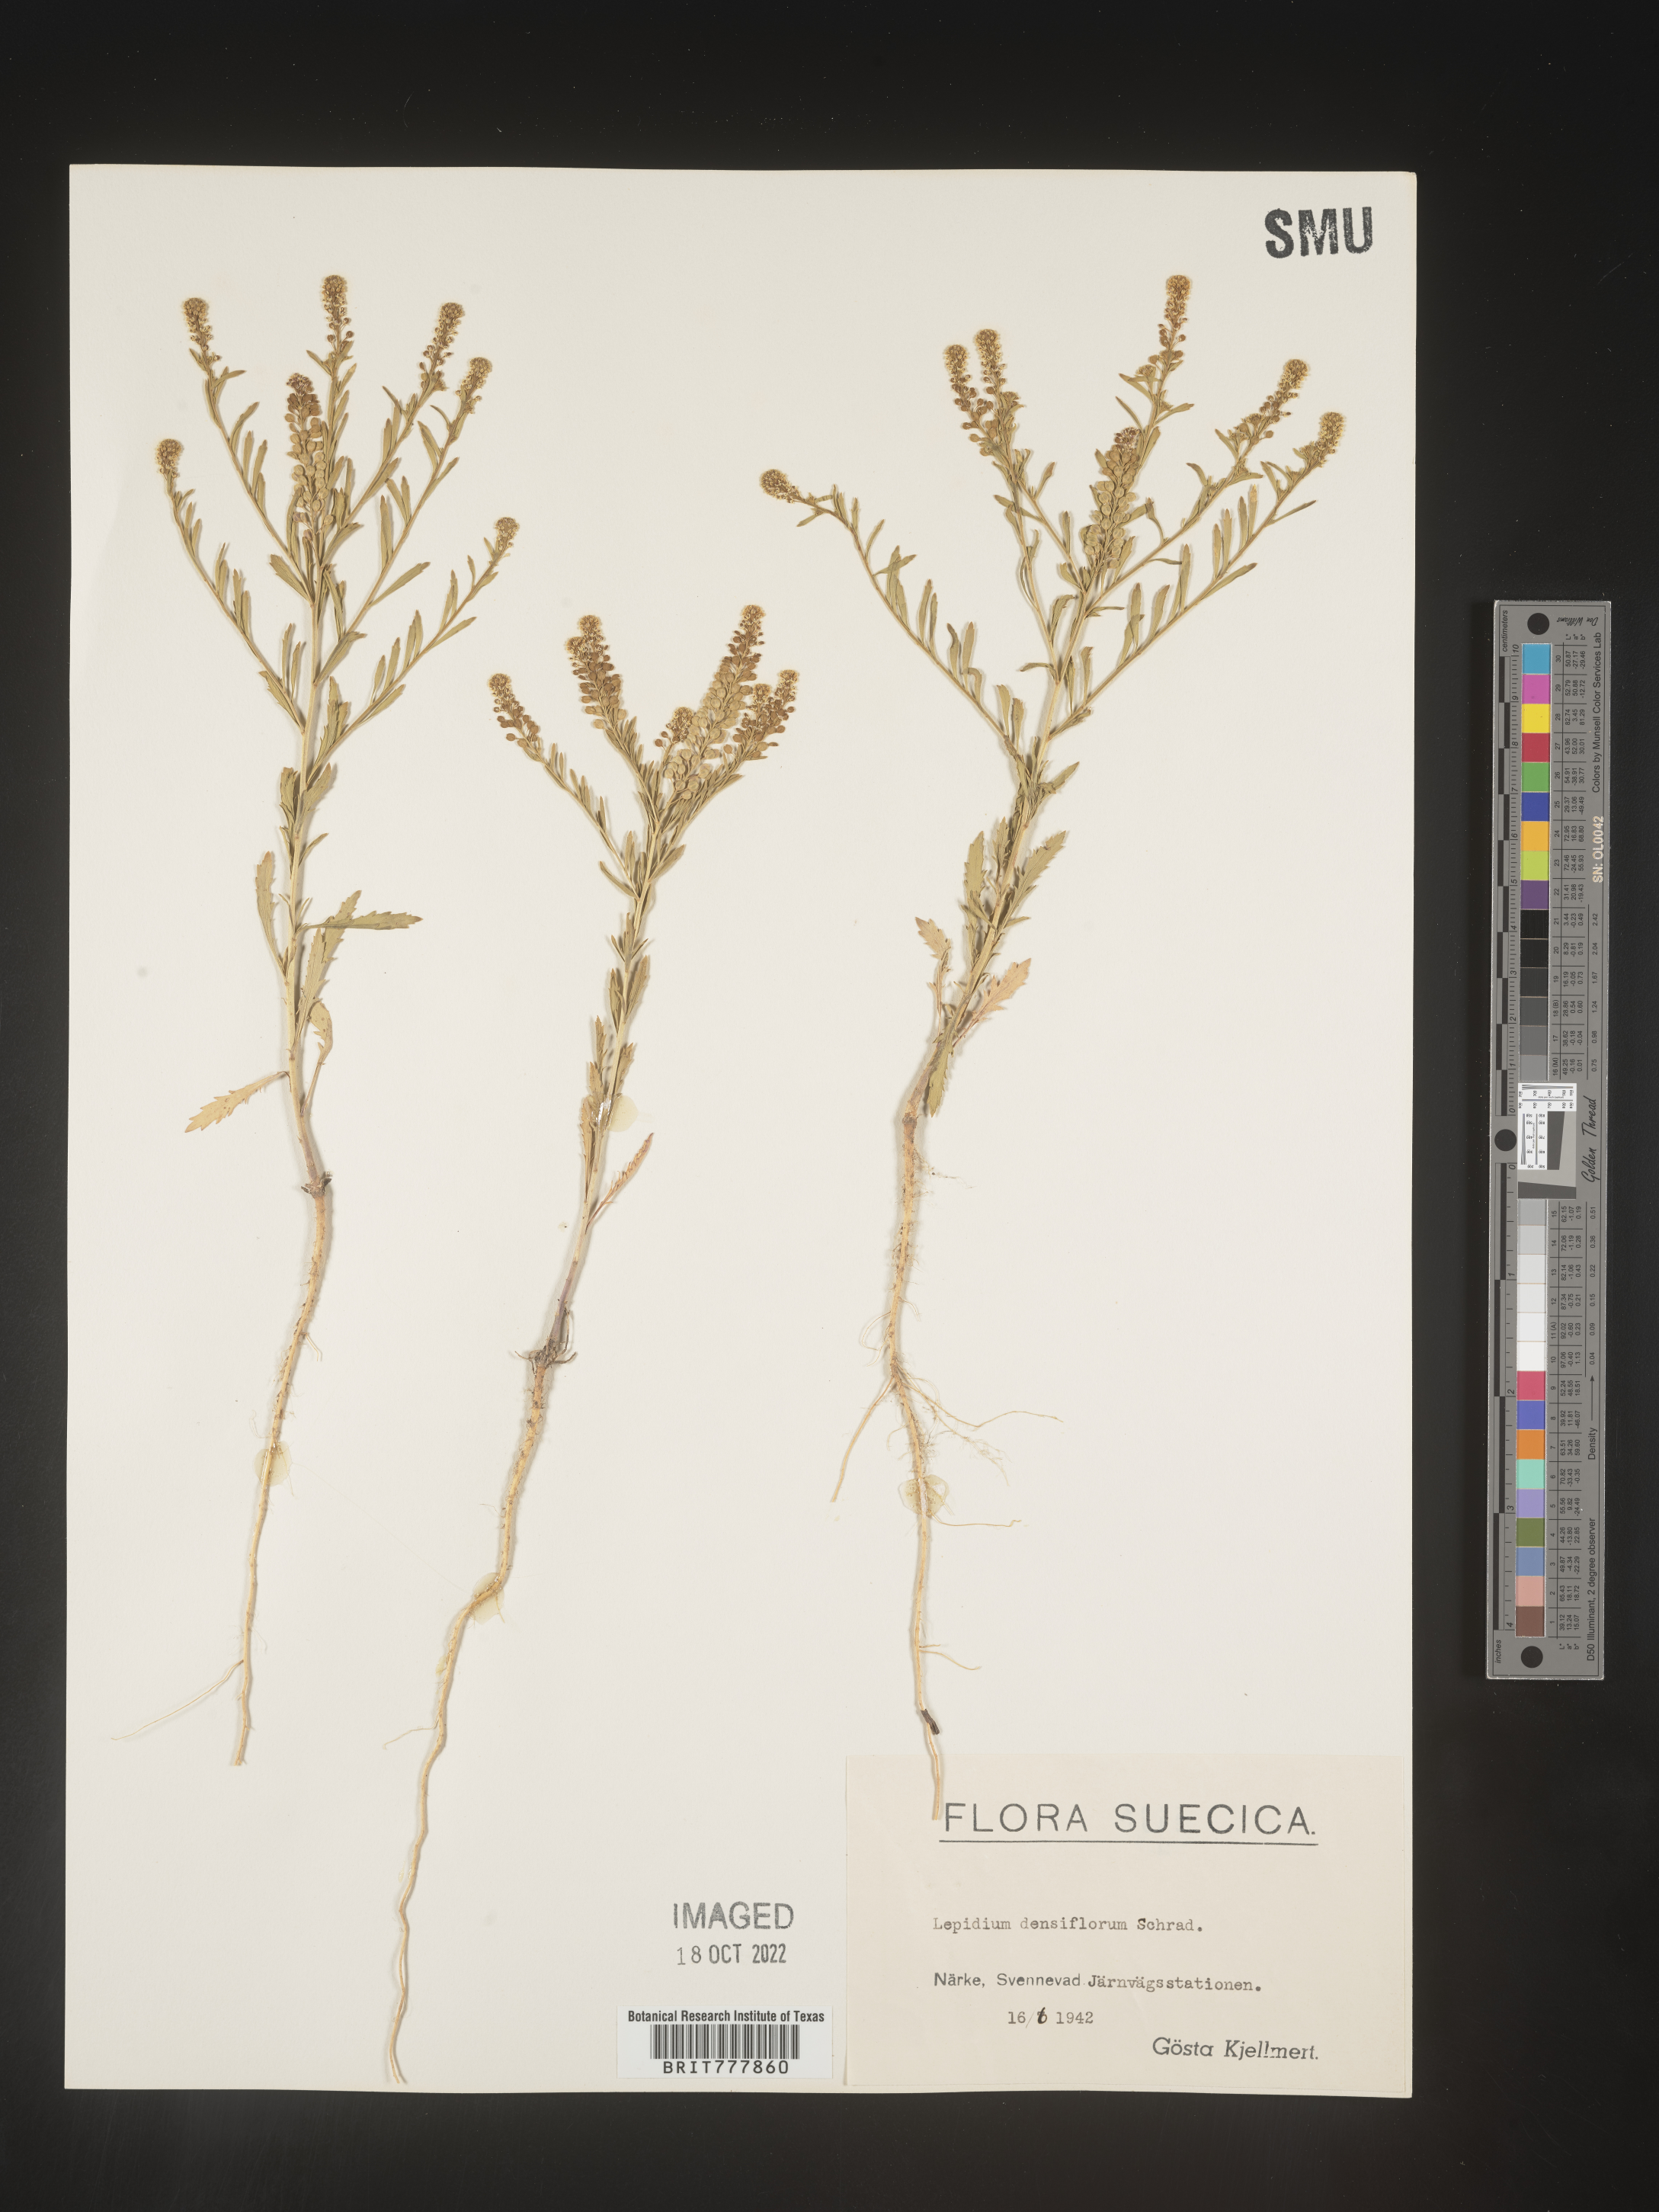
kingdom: Plantae
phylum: Tracheophyta
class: Magnoliopsida
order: Brassicales
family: Brassicaceae
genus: Lepidium
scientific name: Lepidium
